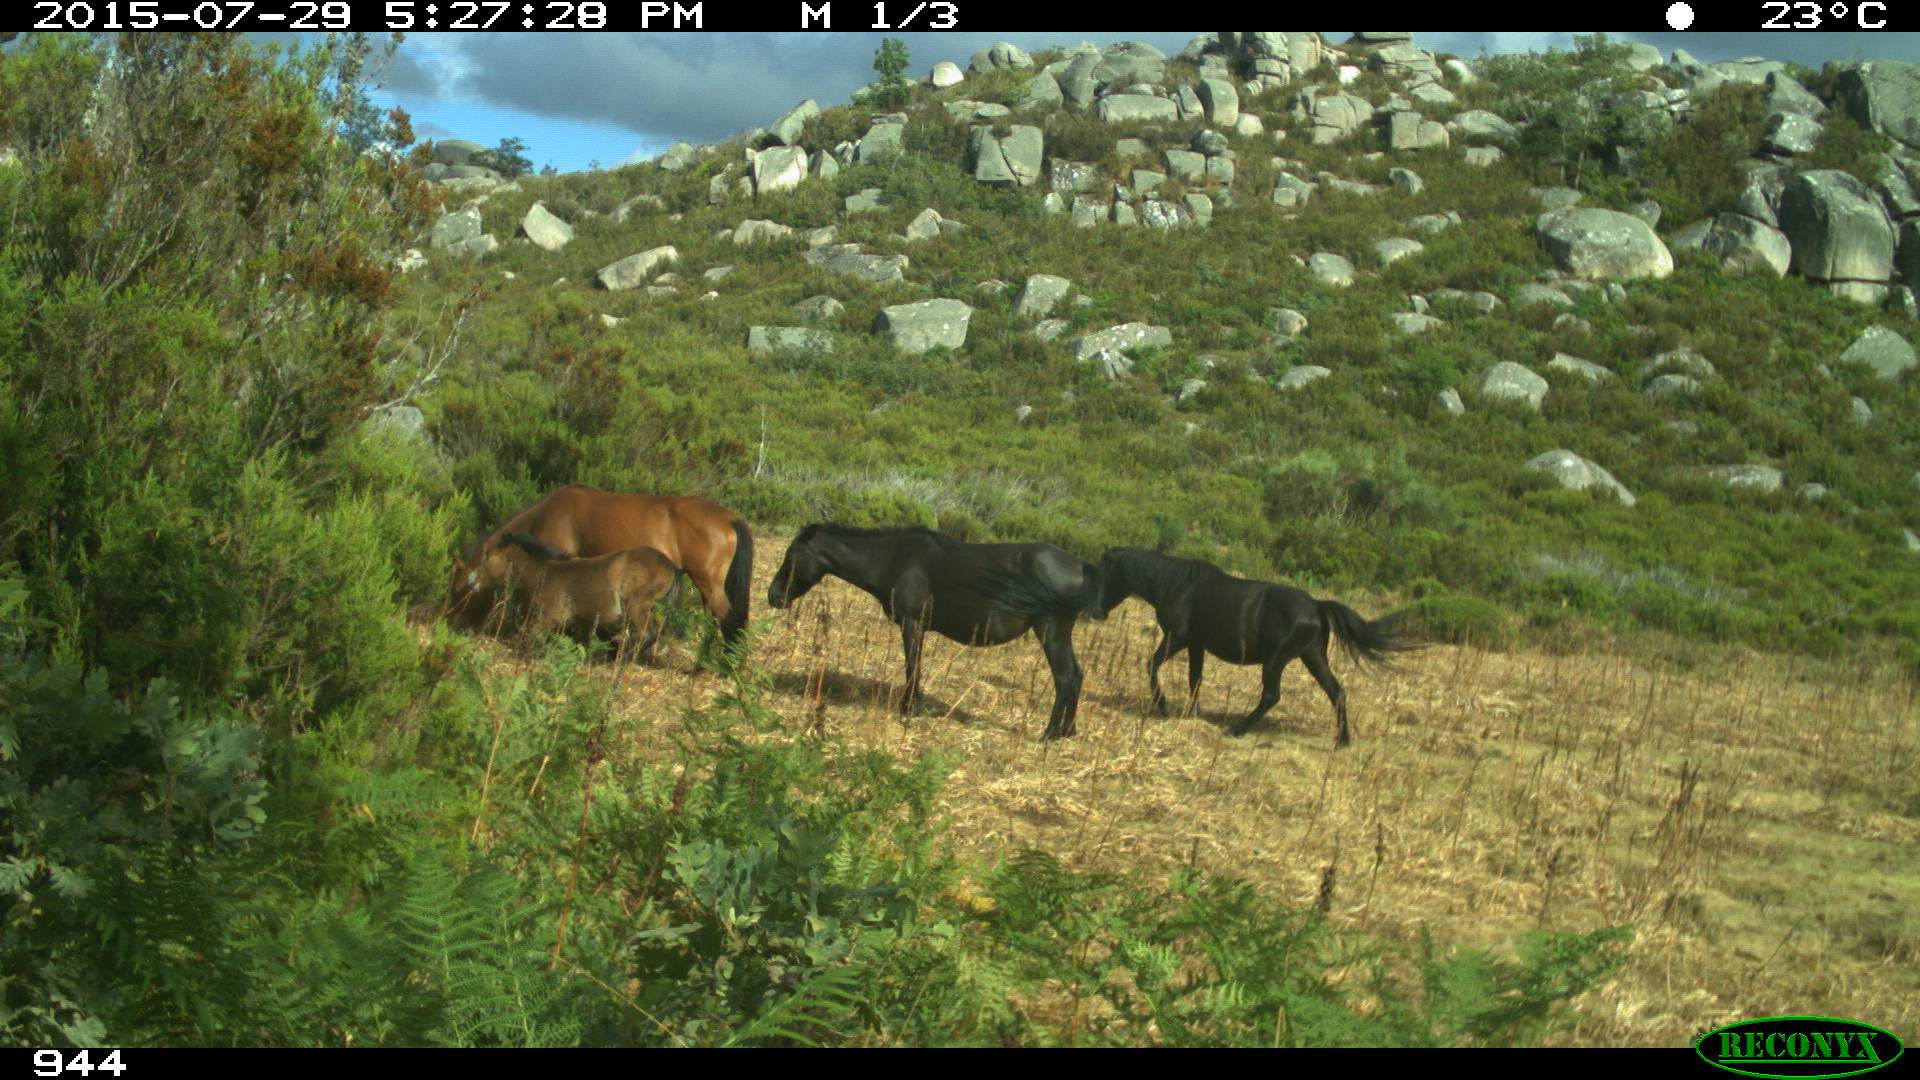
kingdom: Animalia
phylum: Chordata
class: Mammalia
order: Perissodactyla
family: Equidae
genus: Equus
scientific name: Equus caballus
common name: Horse
